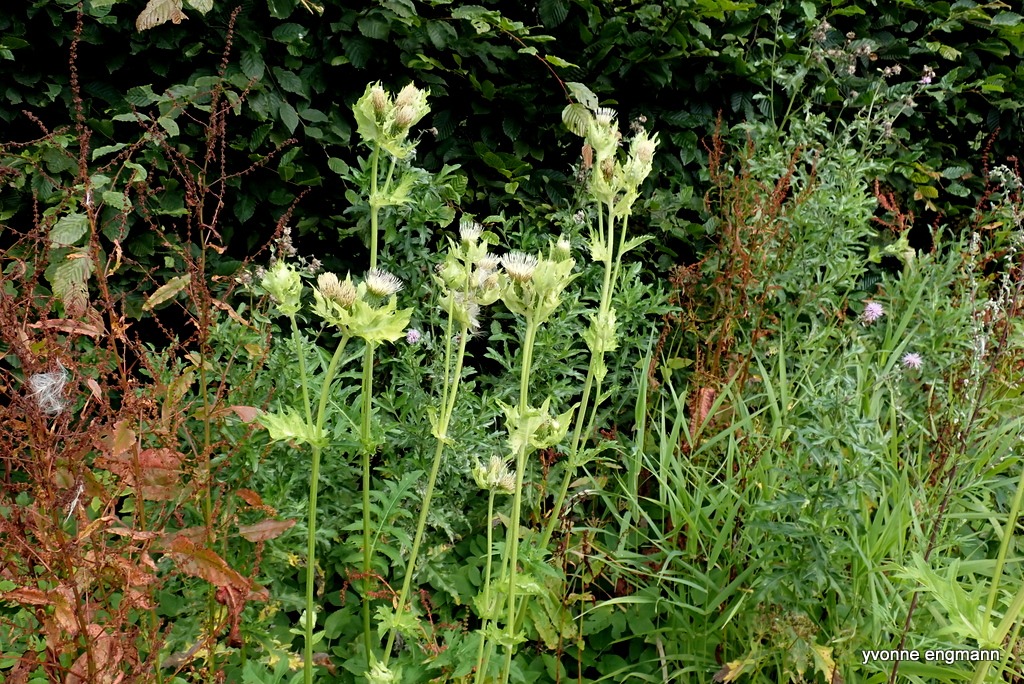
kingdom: Plantae
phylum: Tracheophyta
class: Magnoliopsida
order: Asterales
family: Asteraceae
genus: Cirsium
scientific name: Cirsium oleraceum
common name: Kål-tidsel
